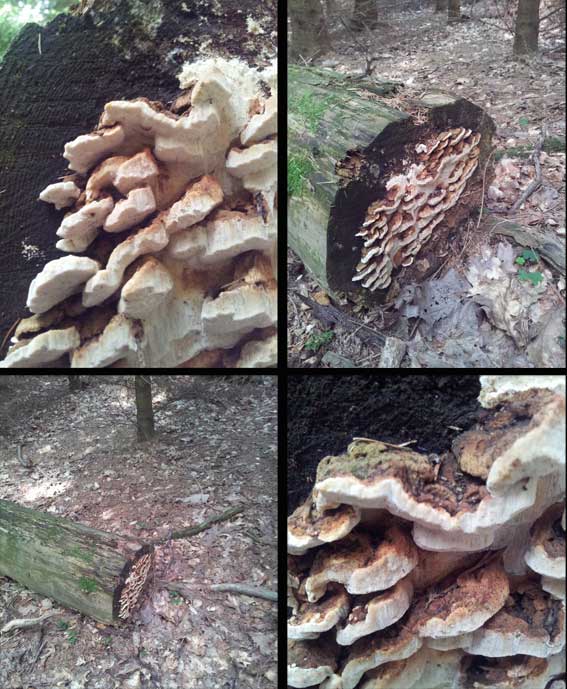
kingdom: Fungi
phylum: Basidiomycota
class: Agaricomycetes
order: Polyporales
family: Fomitopsidaceae
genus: Neoantrodia
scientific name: Neoantrodia serialis
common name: række-sejporesvamp
